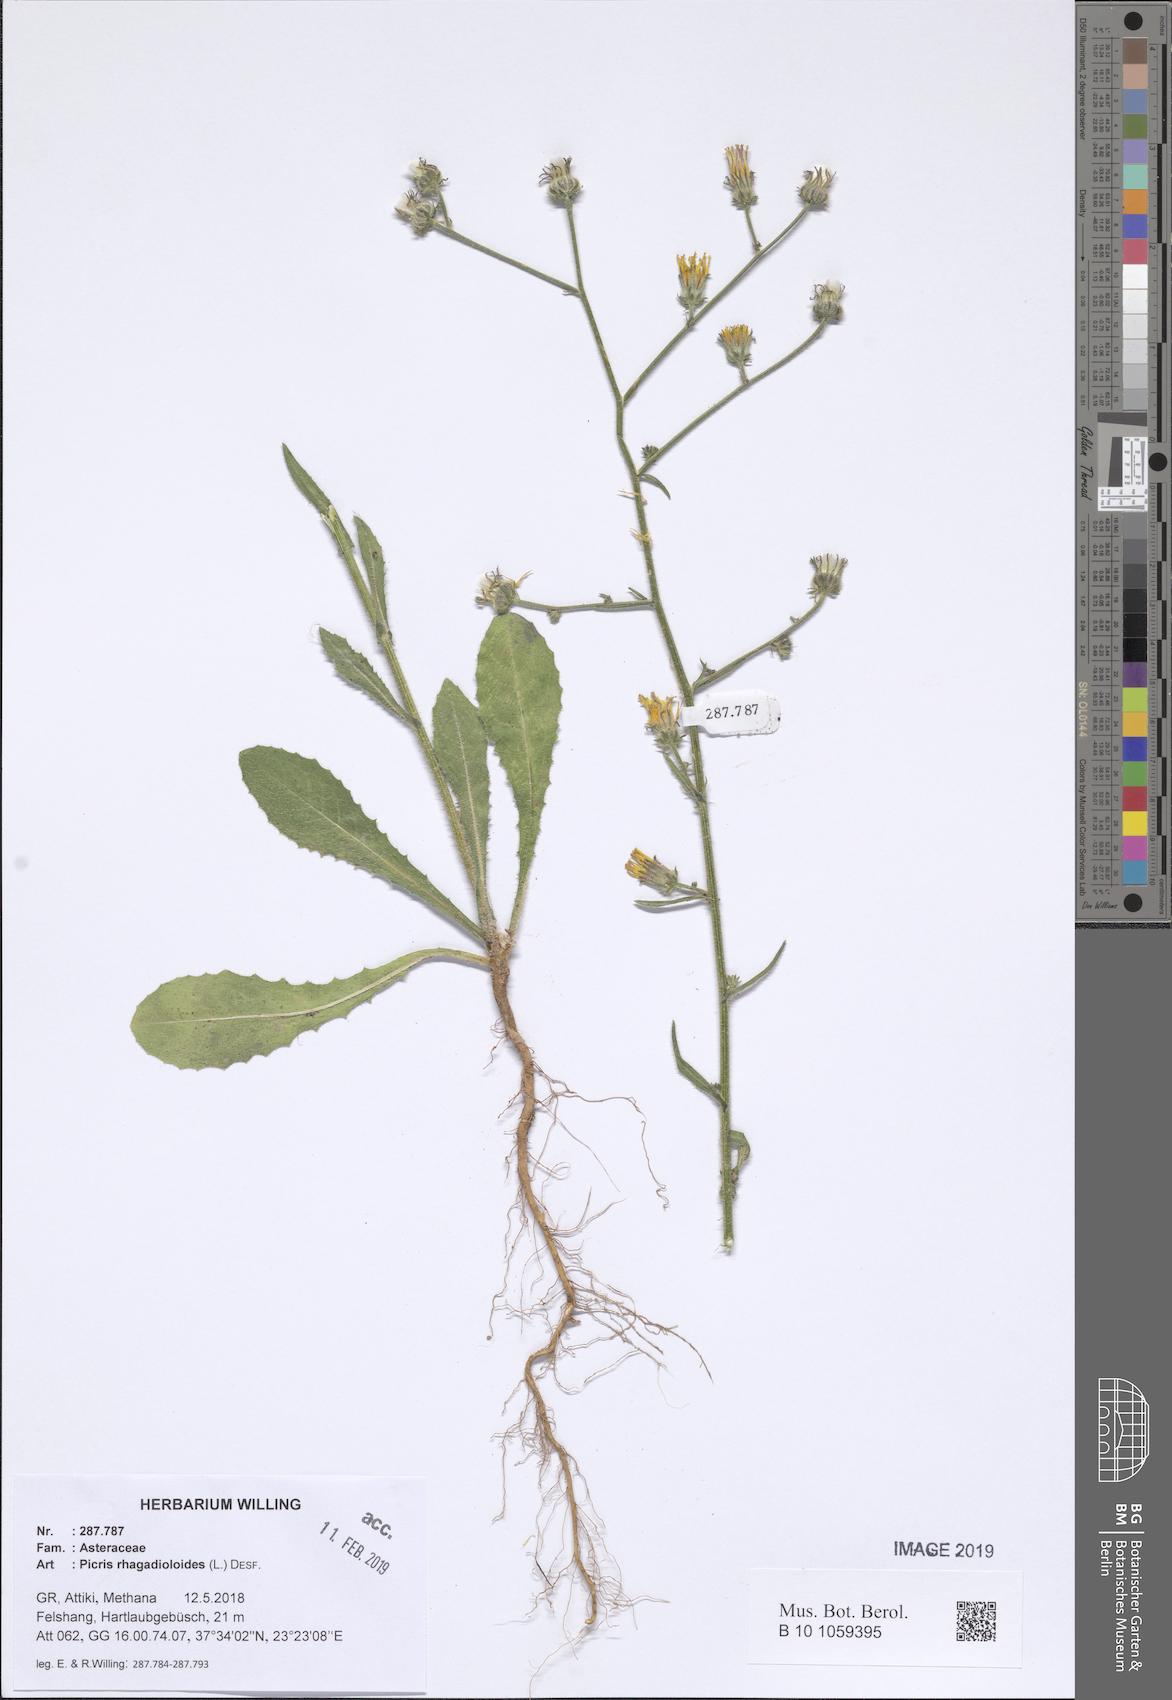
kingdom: Plantae
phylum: Tracheophyta
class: Magnoliopsida
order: Asterales
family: Asteraceae
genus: Picris
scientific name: Picris rhagadioloides
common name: Oxtongue
